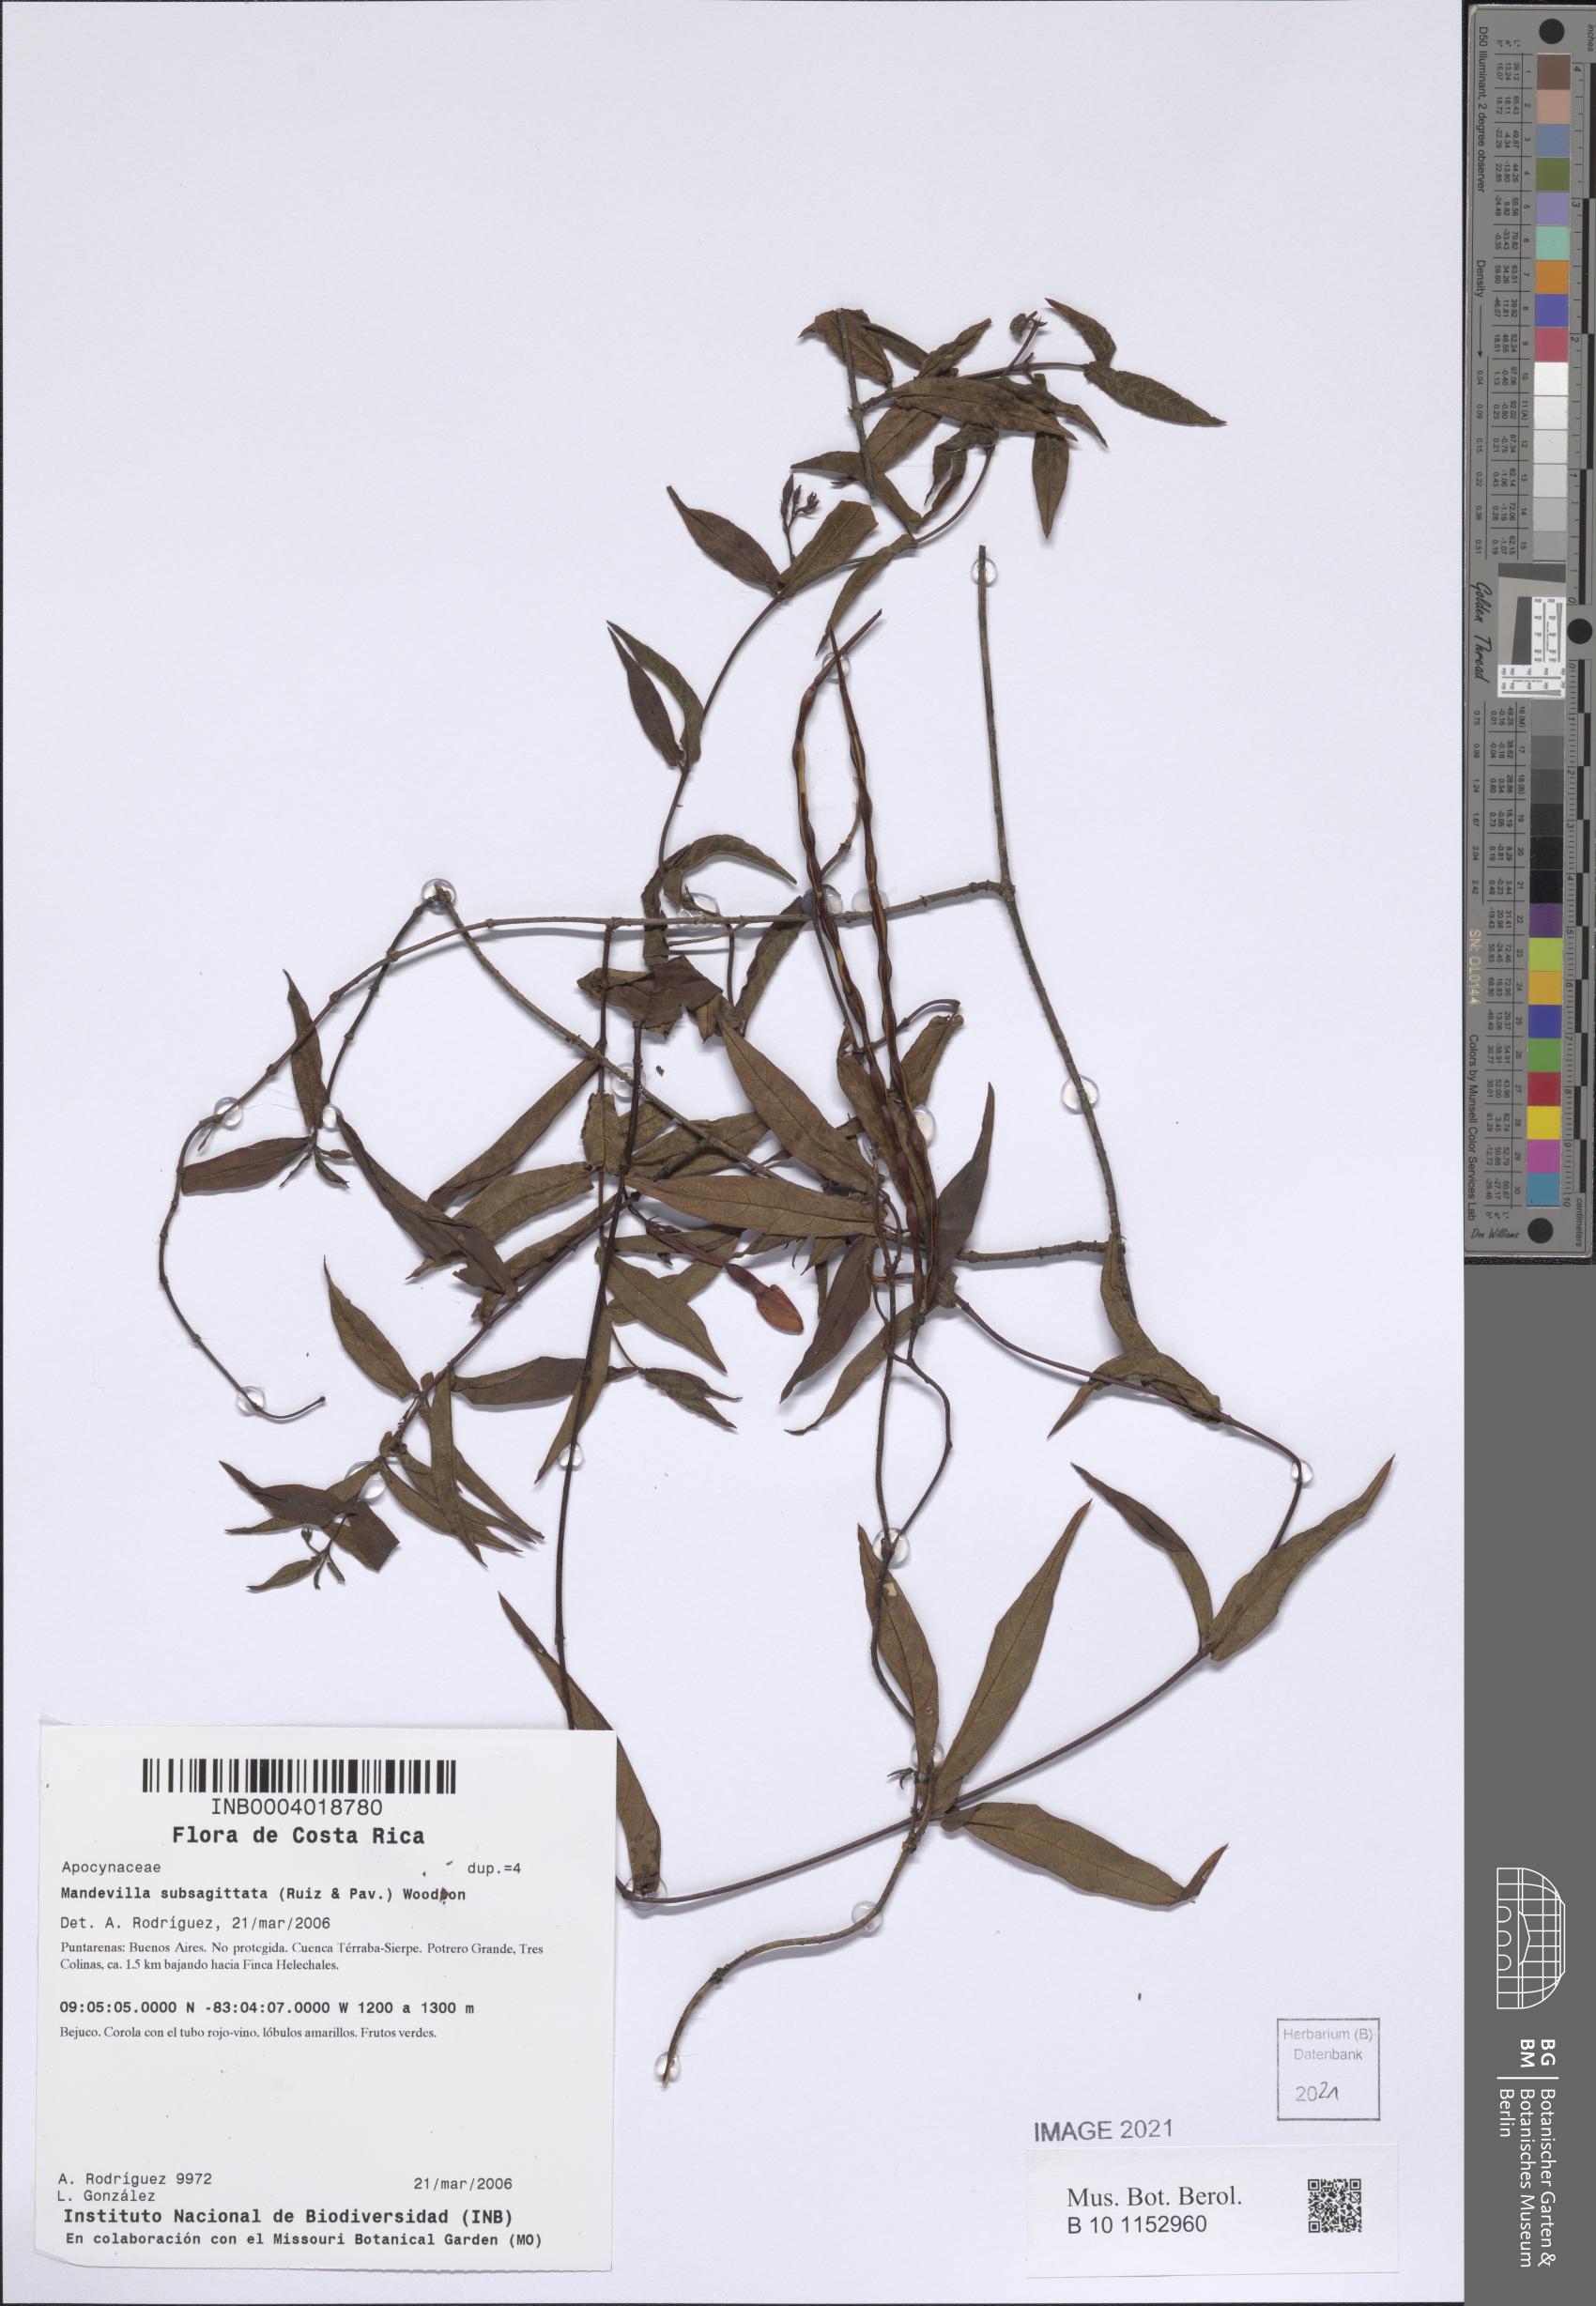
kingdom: Plantae
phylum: Tracheophyta
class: Magnoliopsida
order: Gentianales
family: Apocynaceae
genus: Mandevilla
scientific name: Mandevilla subsagittata
